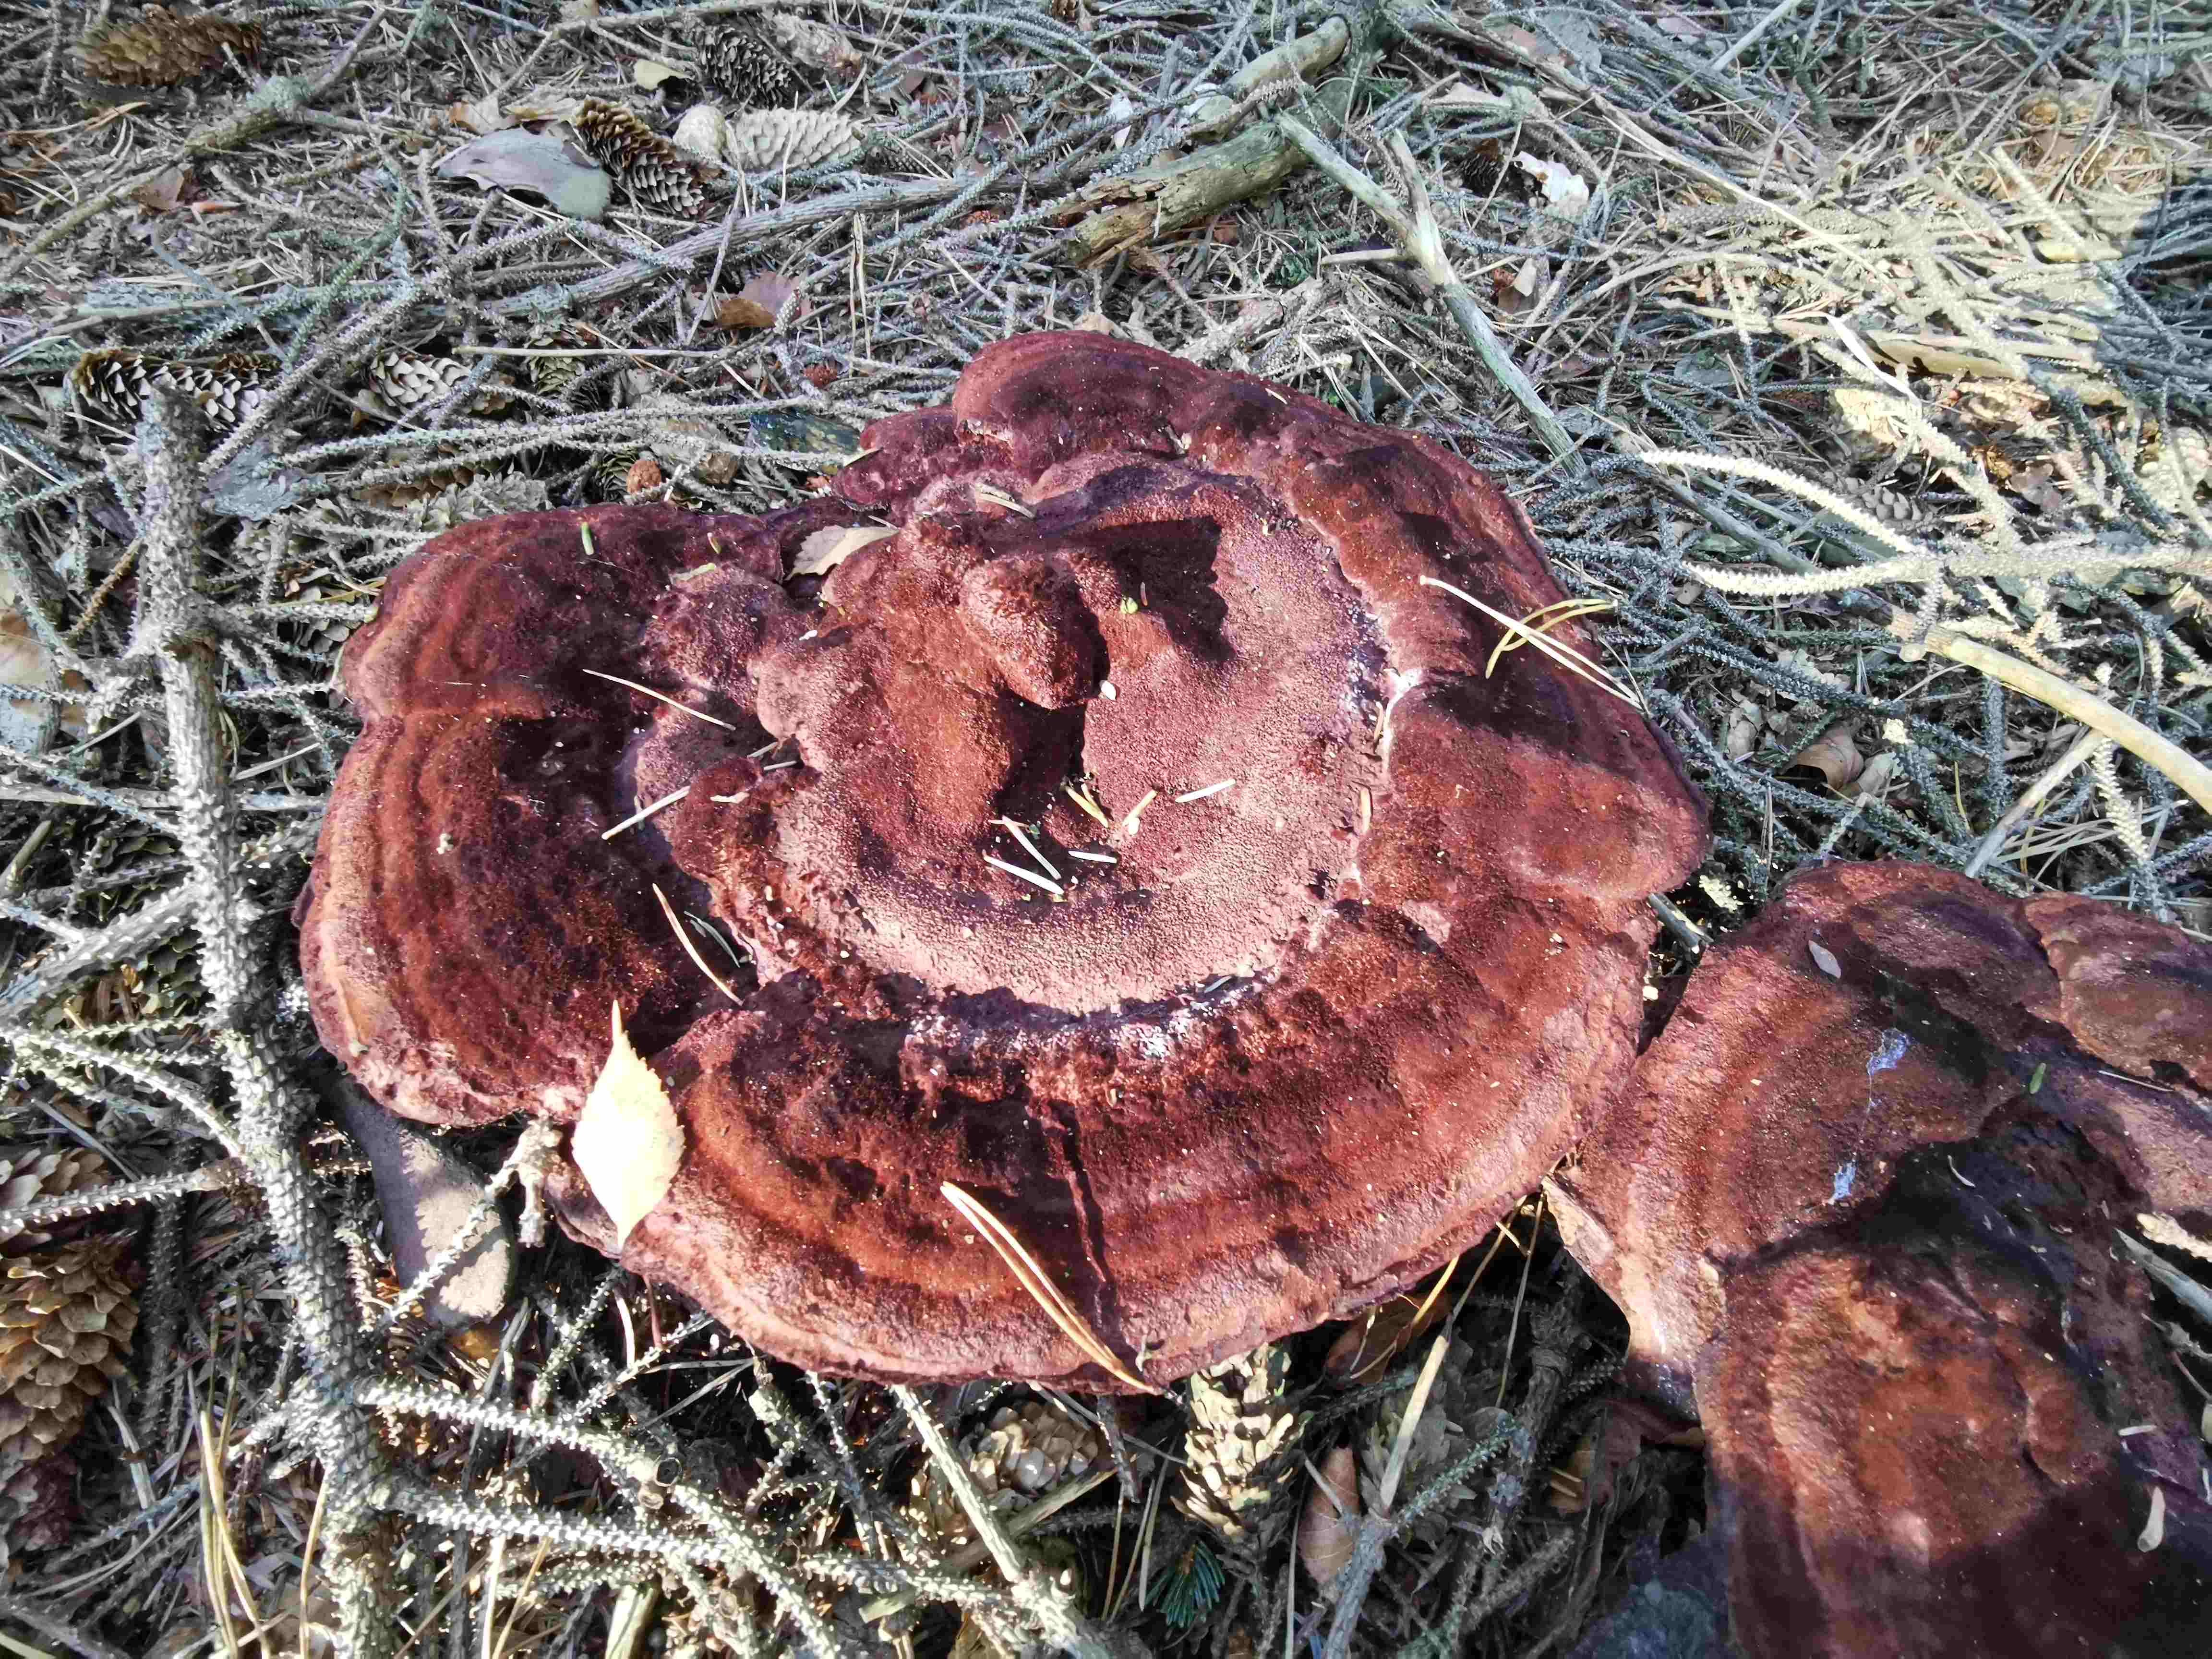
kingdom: Fungi
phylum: Basidiomycota
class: Agaricomycetes
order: Polyporales
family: Laetiporaceae
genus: Phaeolus
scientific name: Phaeolus schweinitzii
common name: brunporesvamp
